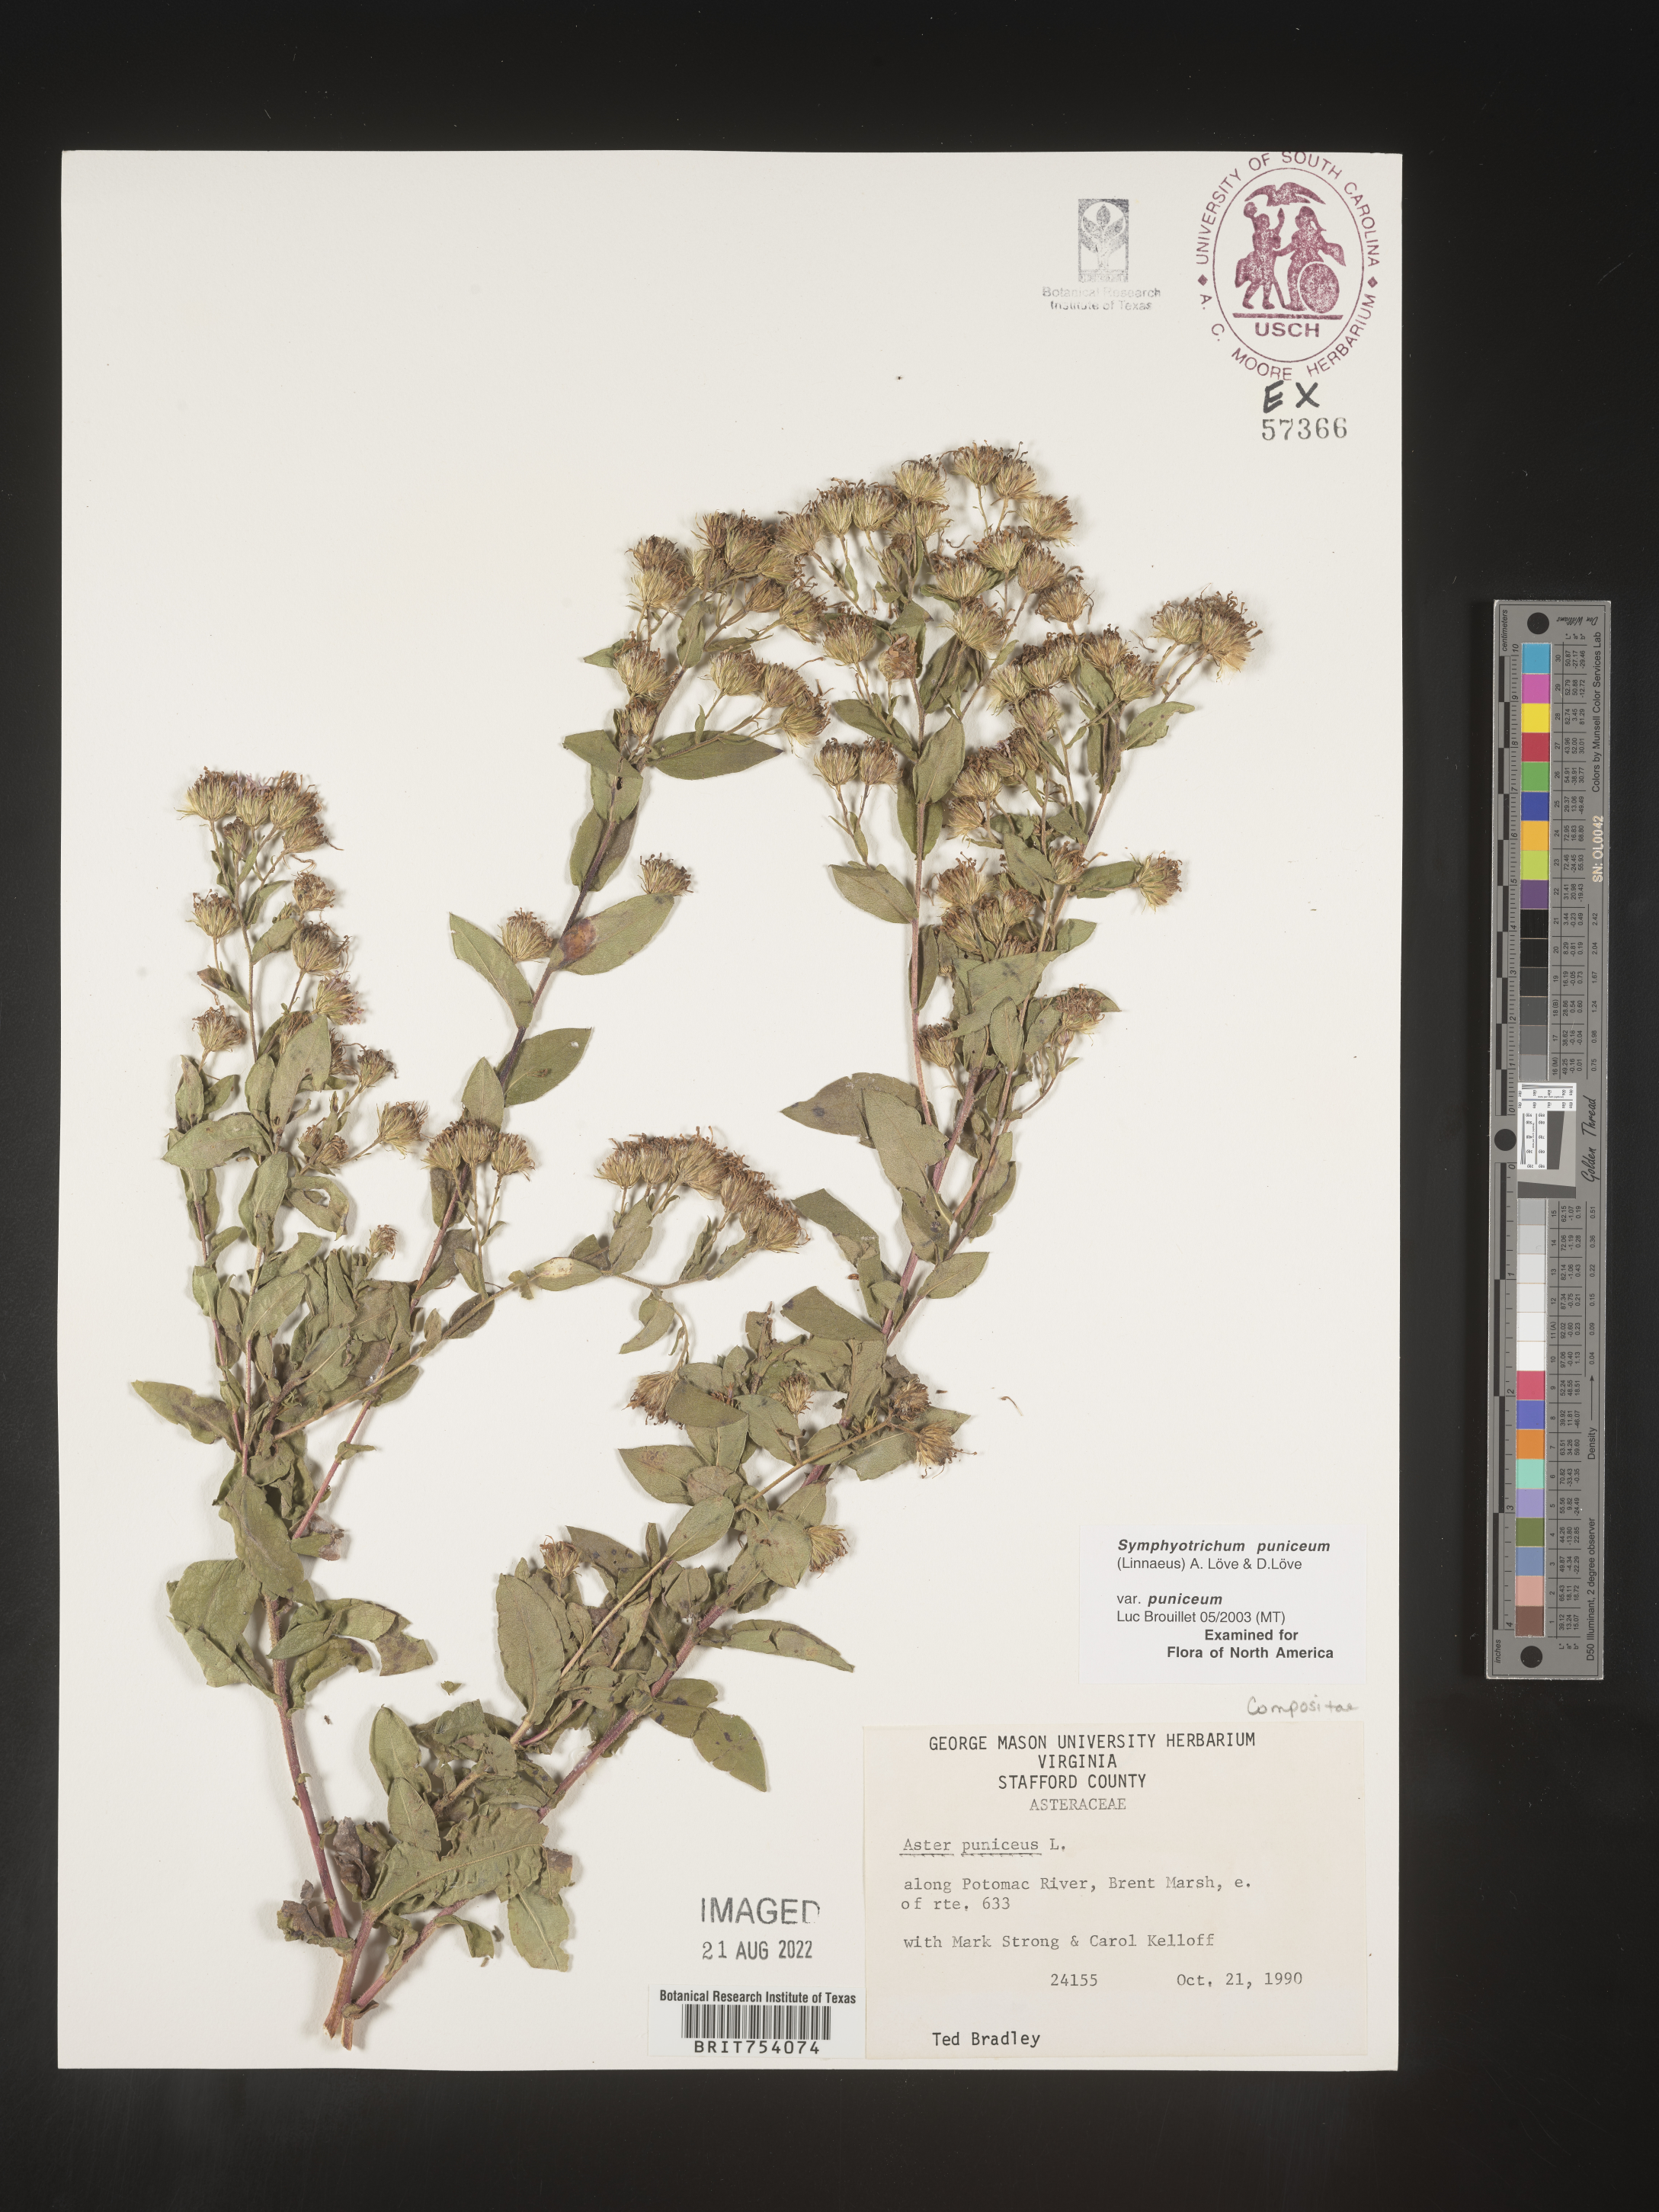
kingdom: Plantae
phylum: Tracheophyta
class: Magnoliopsida
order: Asterales
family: Asteraceae
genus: Symphyotrichum
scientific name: Symphyotrichum puniceum
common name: Bog aster
